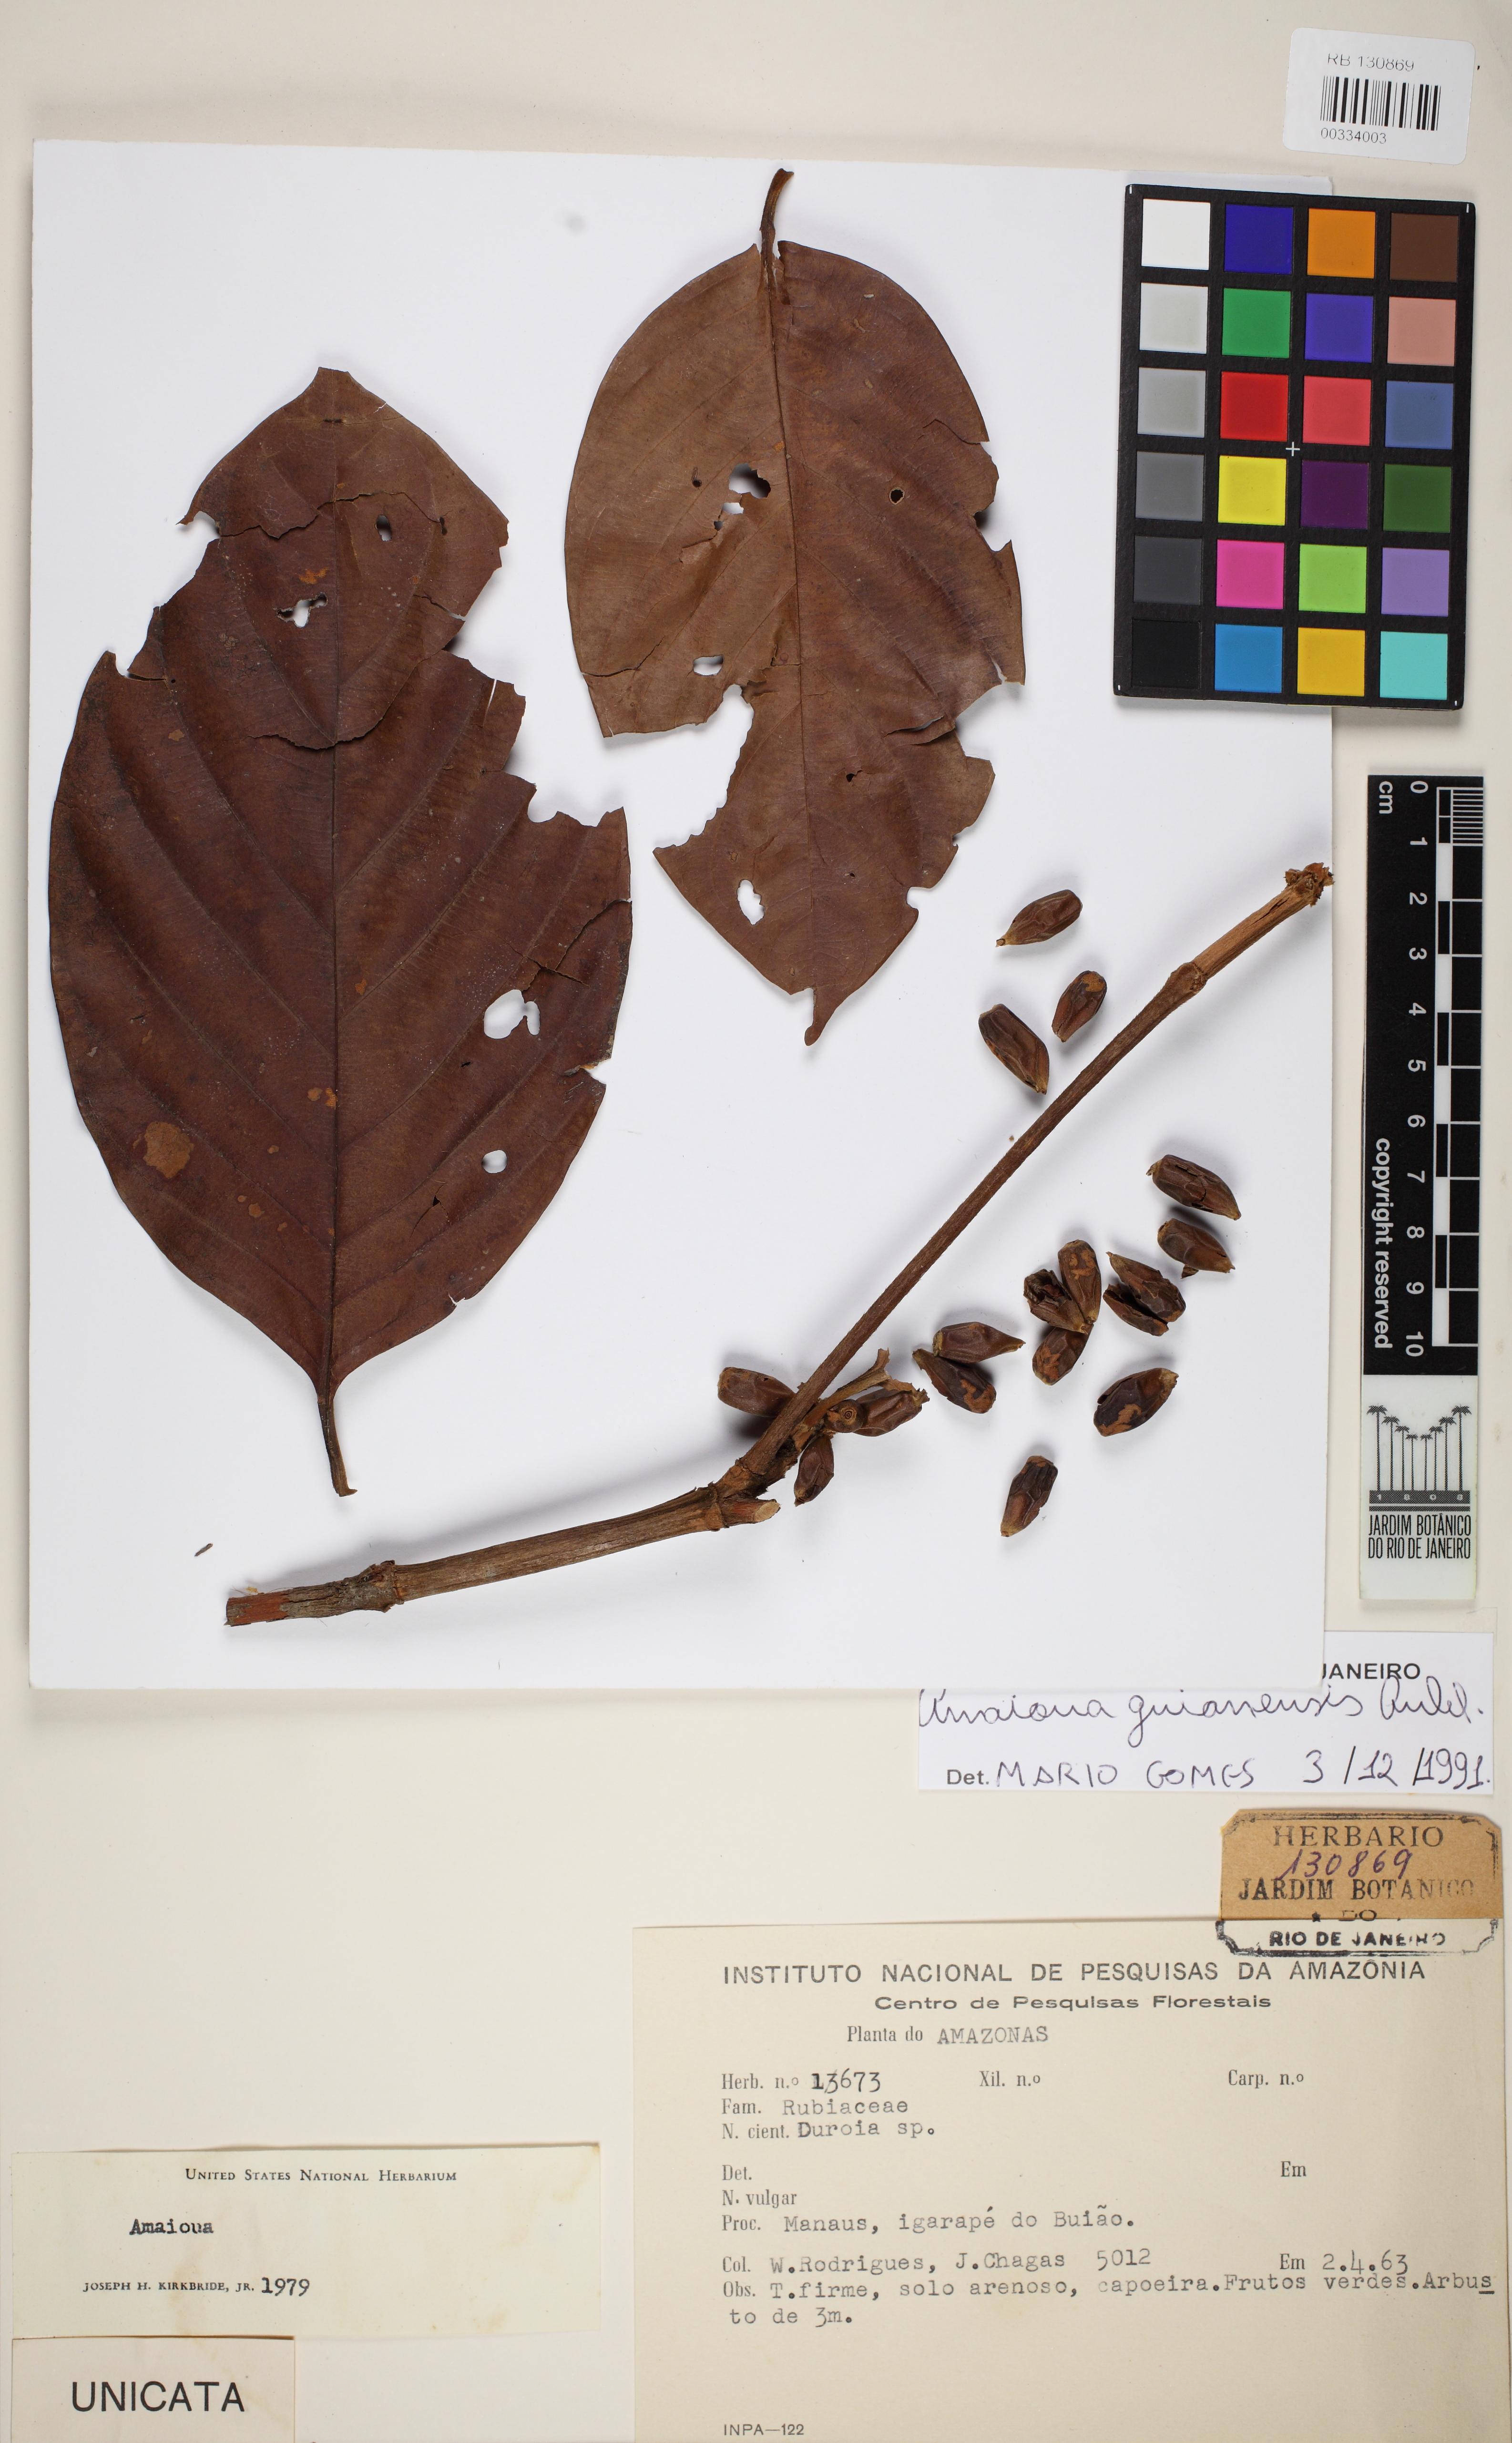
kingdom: Plantae
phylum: Tracheophyta
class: Magnoliopsida
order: Gentianales
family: Rubiaceae
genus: Amaioua
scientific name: Amaioua guianensis
